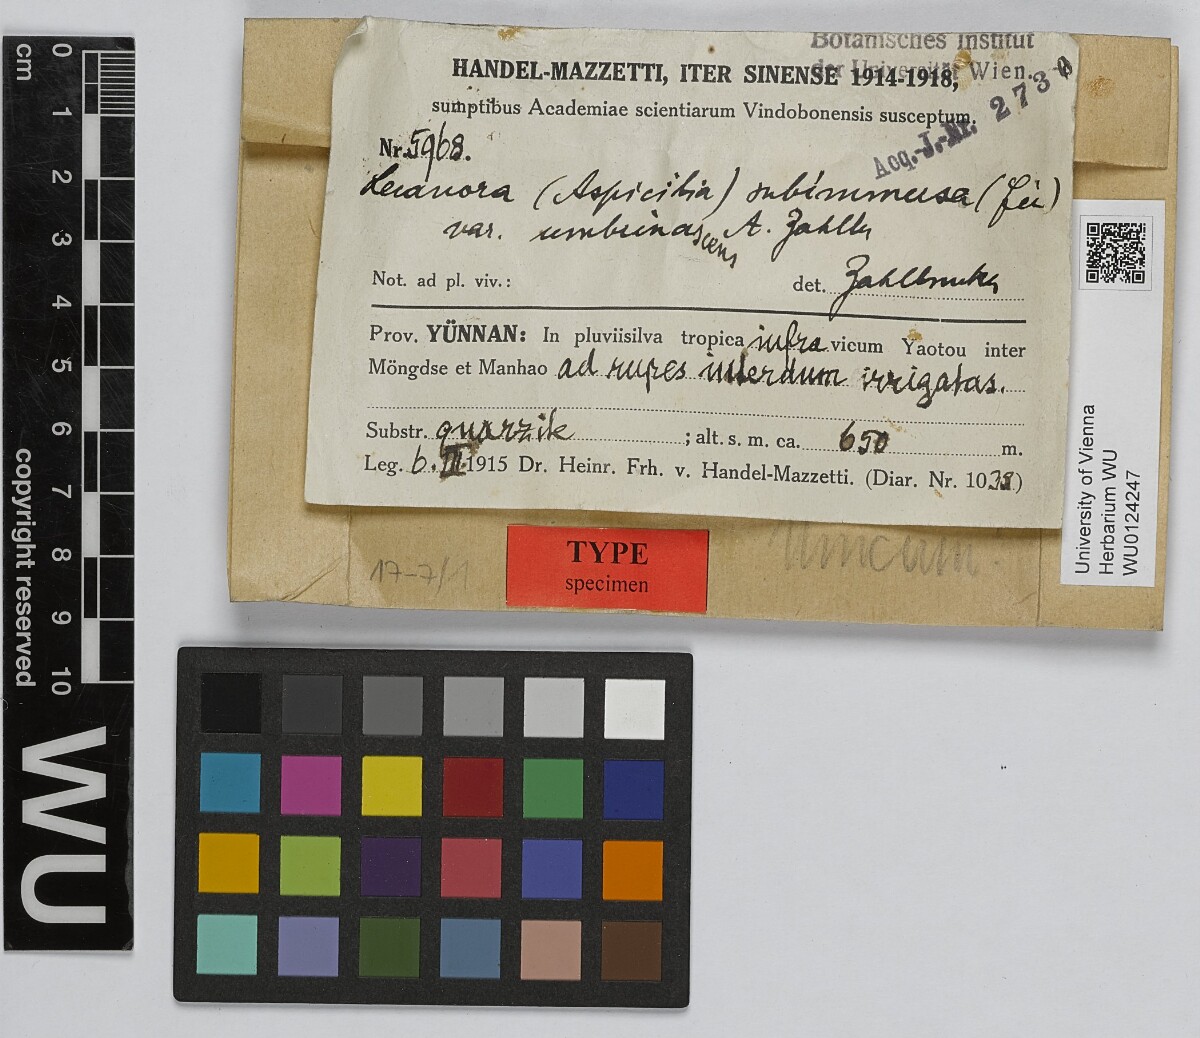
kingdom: Fungi
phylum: Ascomycota
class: Lecanoromycetes
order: Lecanorales
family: Lecanoraceae
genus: Lecanora
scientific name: Lecanora subimmersa
